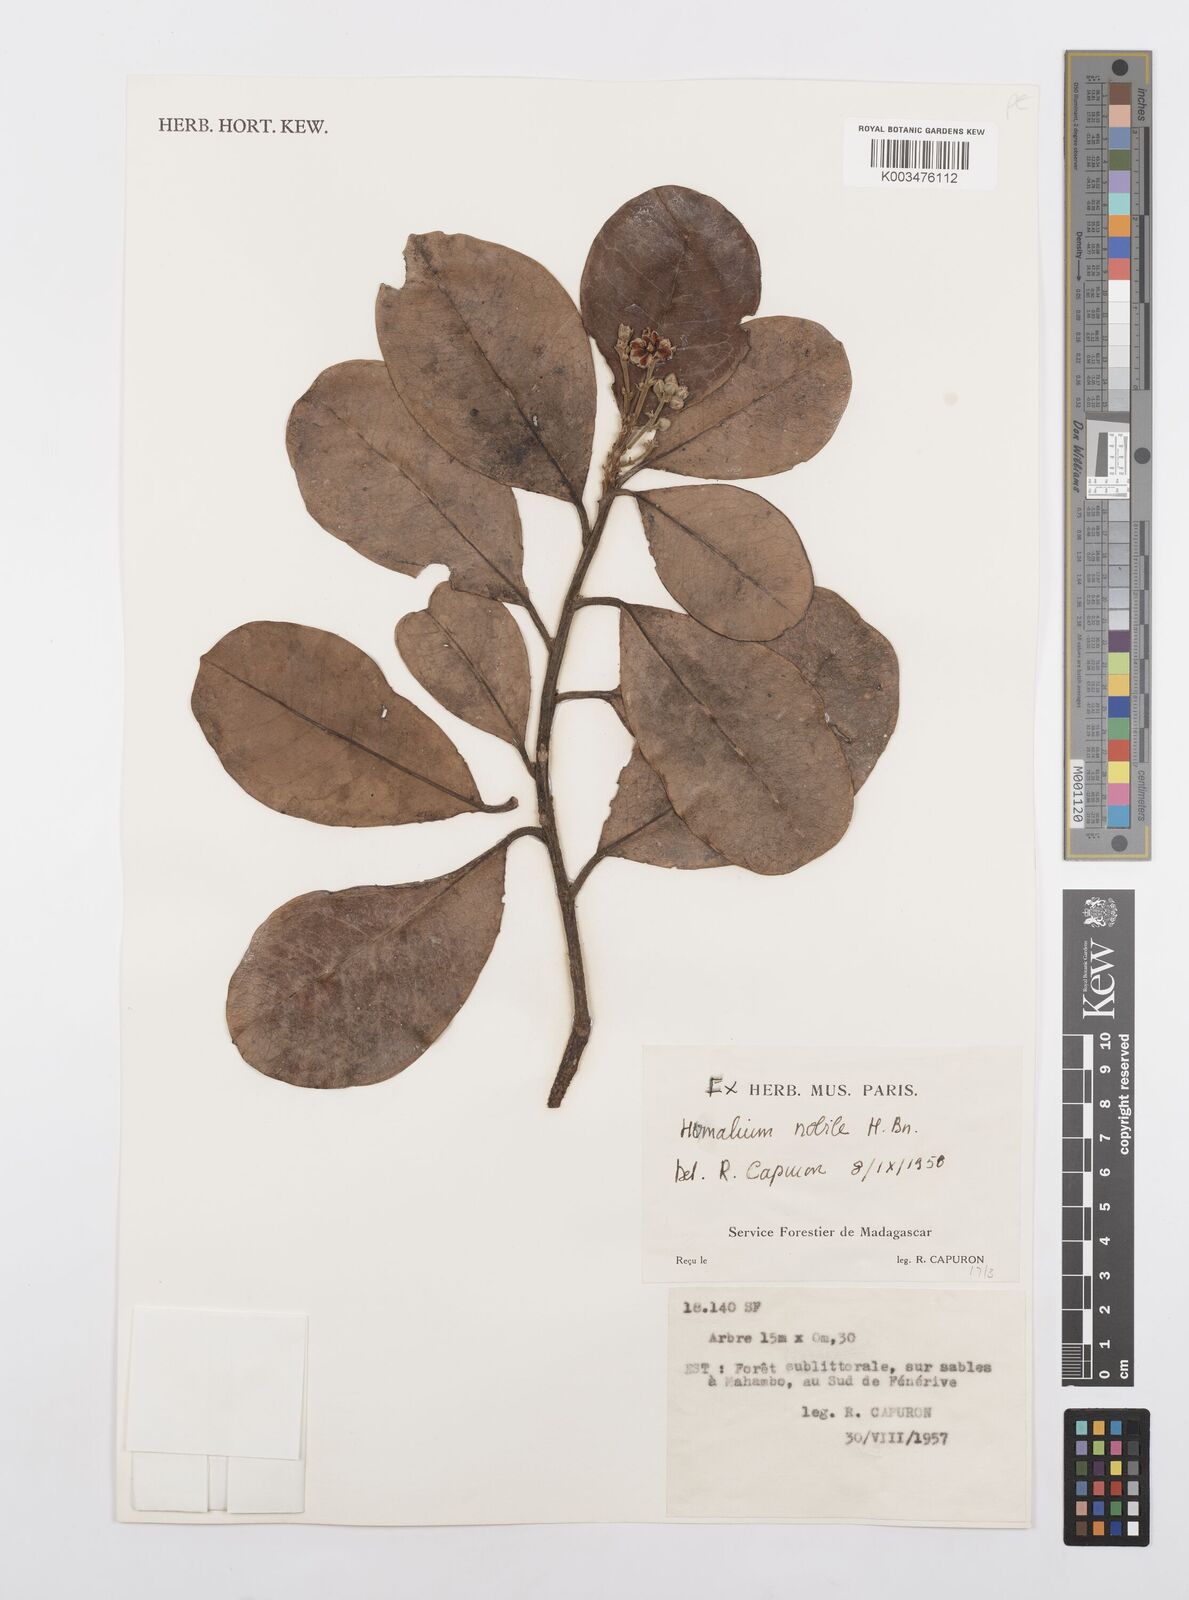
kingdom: Plantae
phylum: Tracheophyta
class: Magnoliopsida
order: Malpighiales
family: Salicaceae
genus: Homalium
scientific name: Homalium nobile
